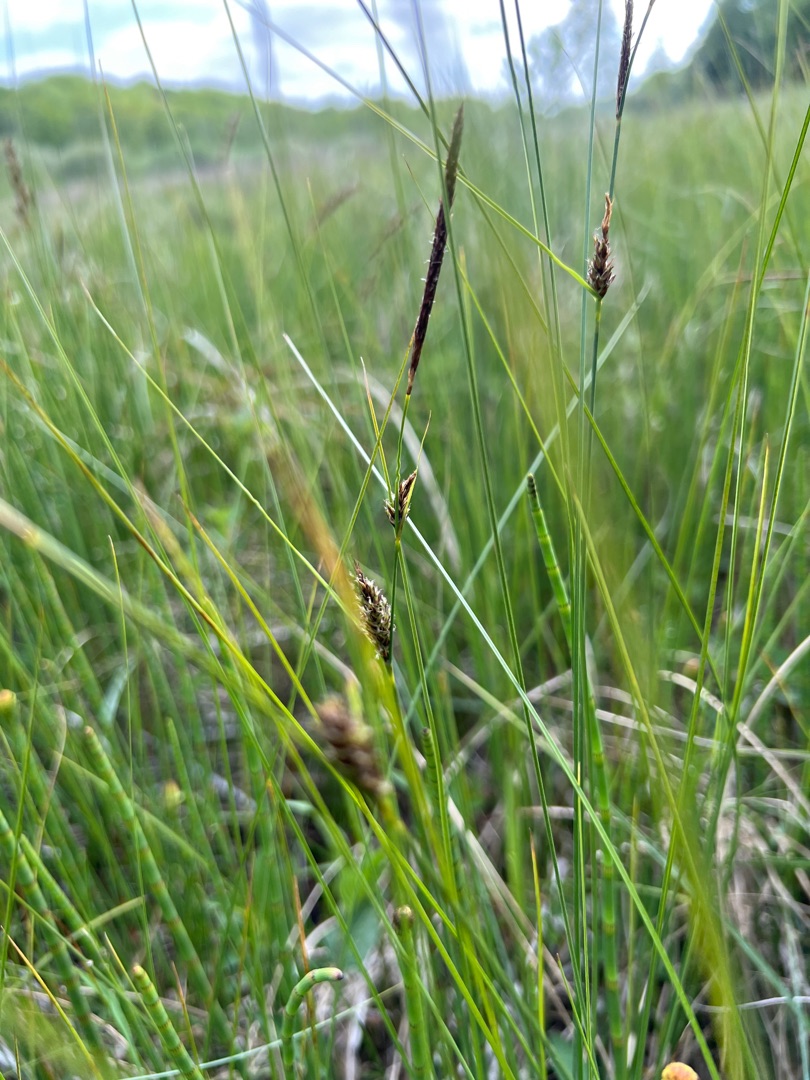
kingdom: Plantae
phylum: Tracheophyta
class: Liliopsida
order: Poales
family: Cyperaceae
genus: Carex
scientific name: Carex lasiocarpa
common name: Tråd-star
